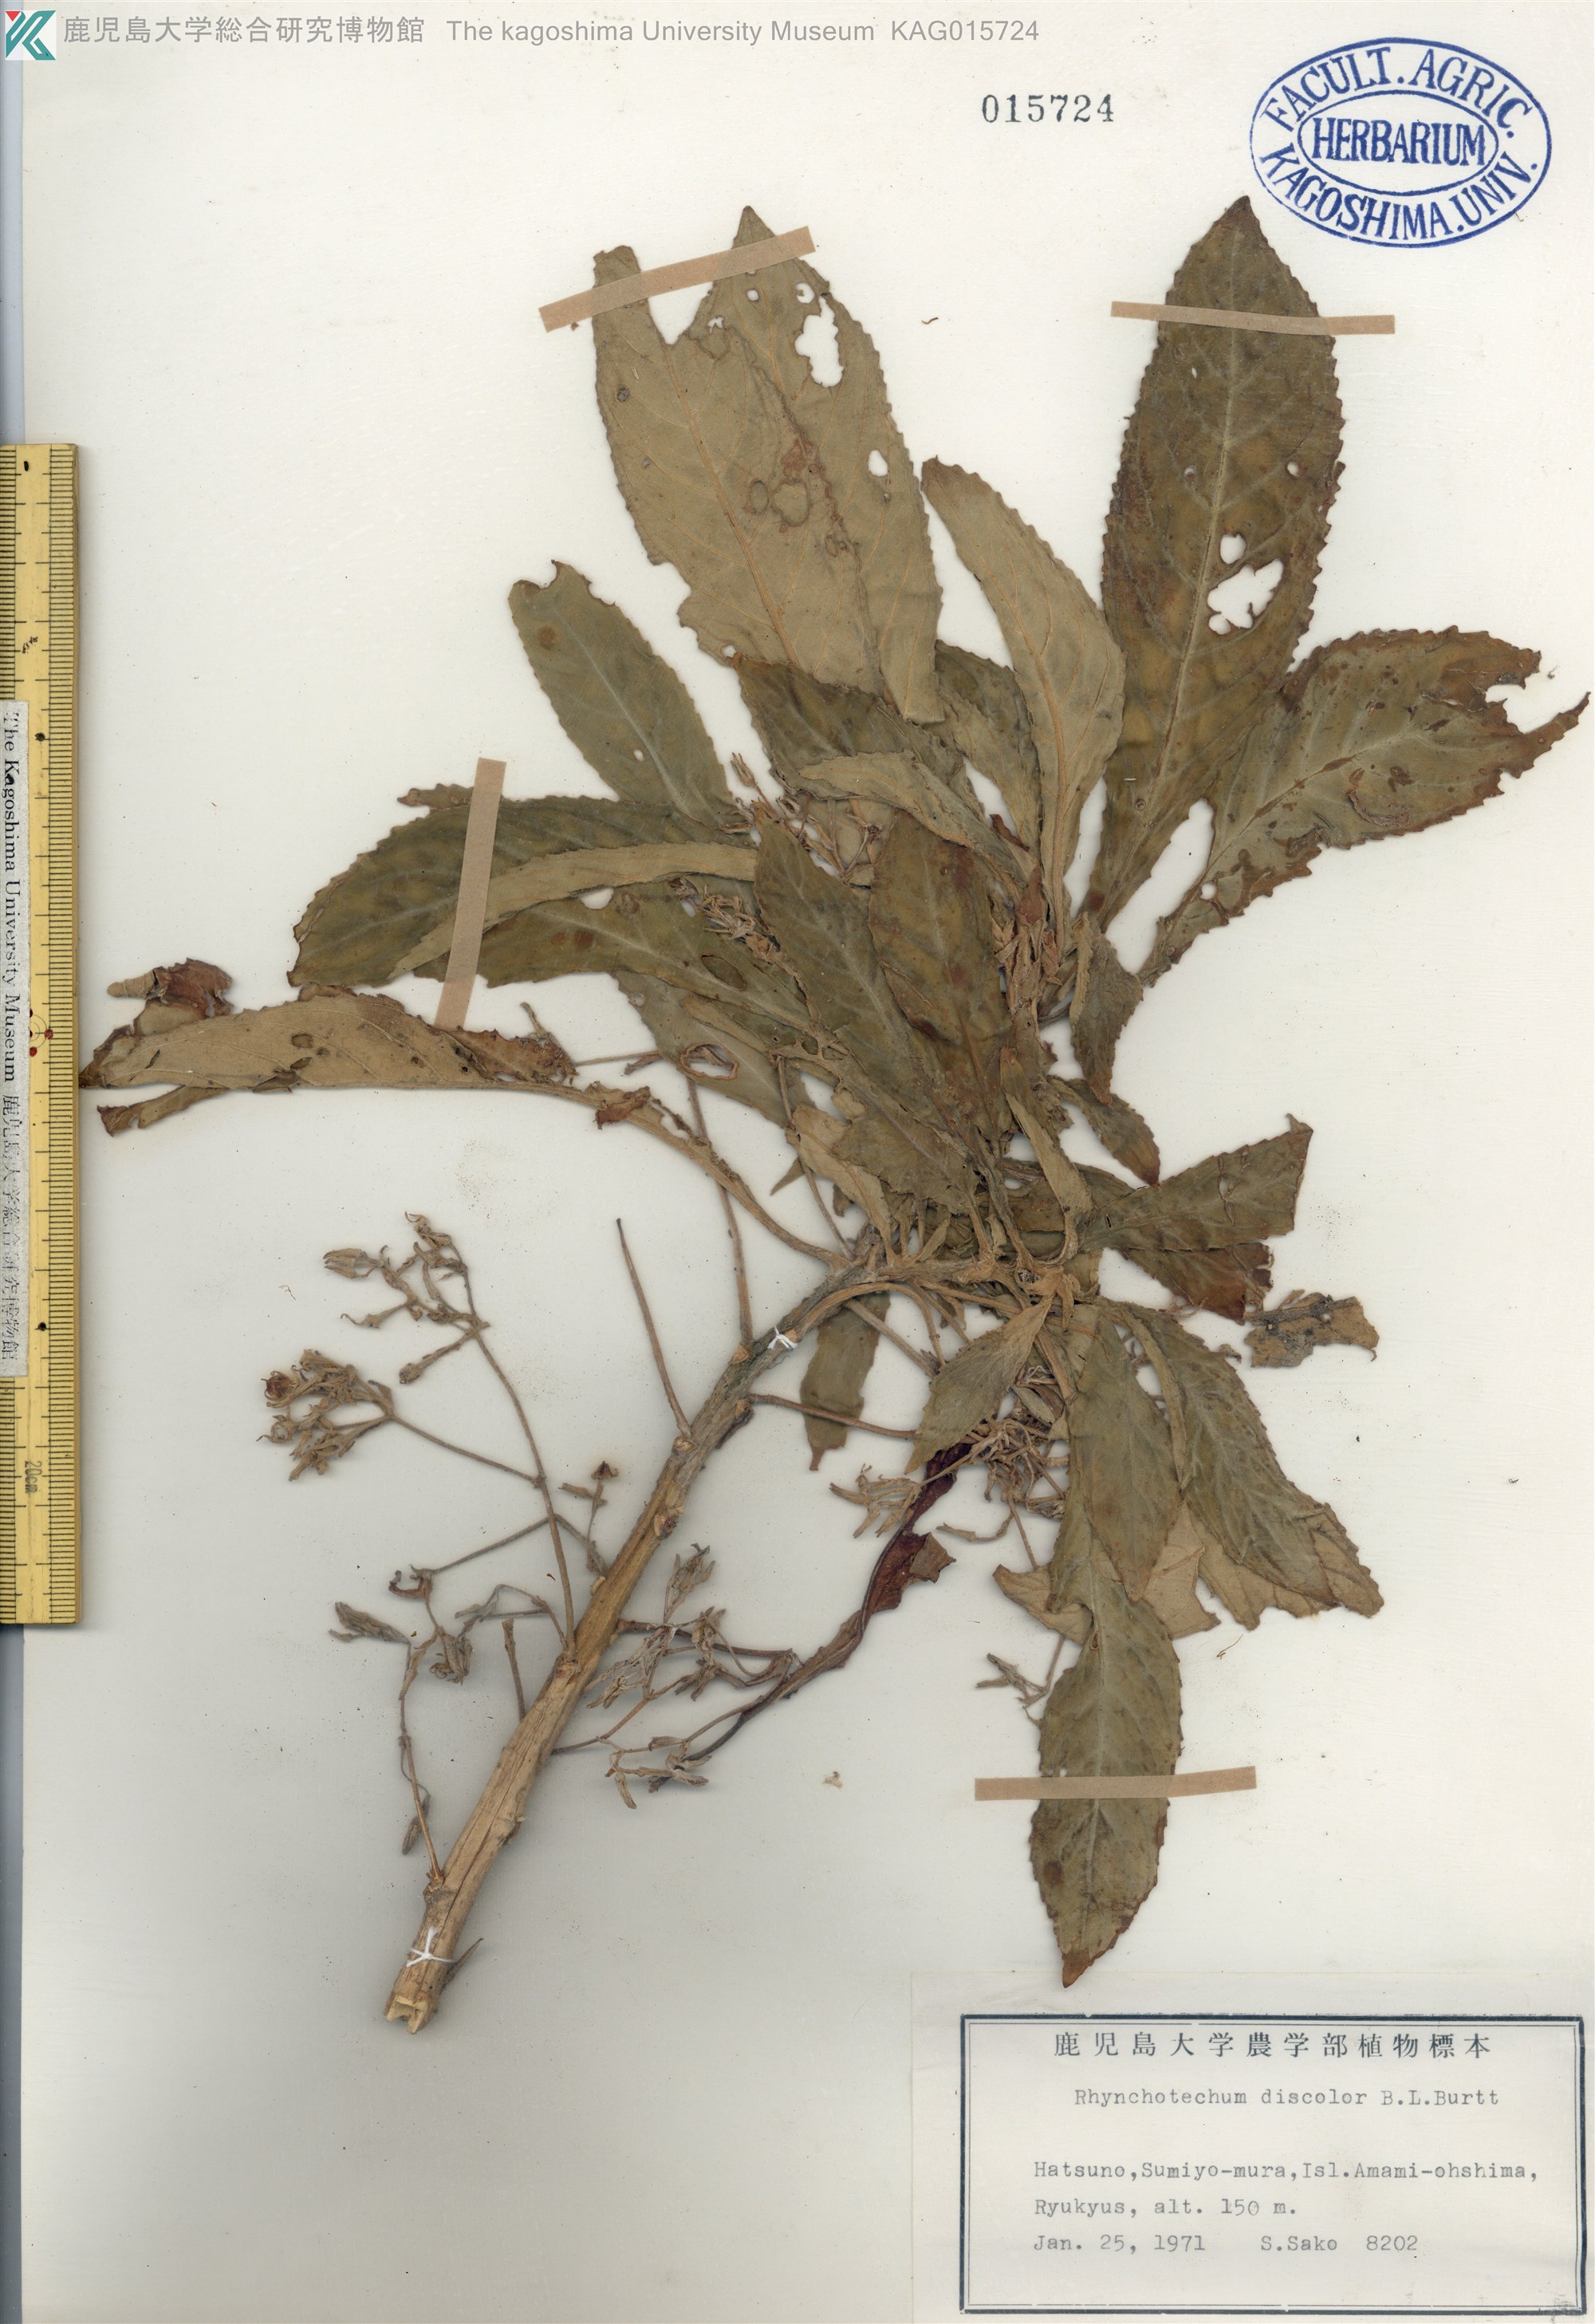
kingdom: Plantae
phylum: Tracheophyta
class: Magnoliopsida
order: Lamiales
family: Gesneriaceae
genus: Rhynchotechum
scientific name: Rhynchotechum discolor
